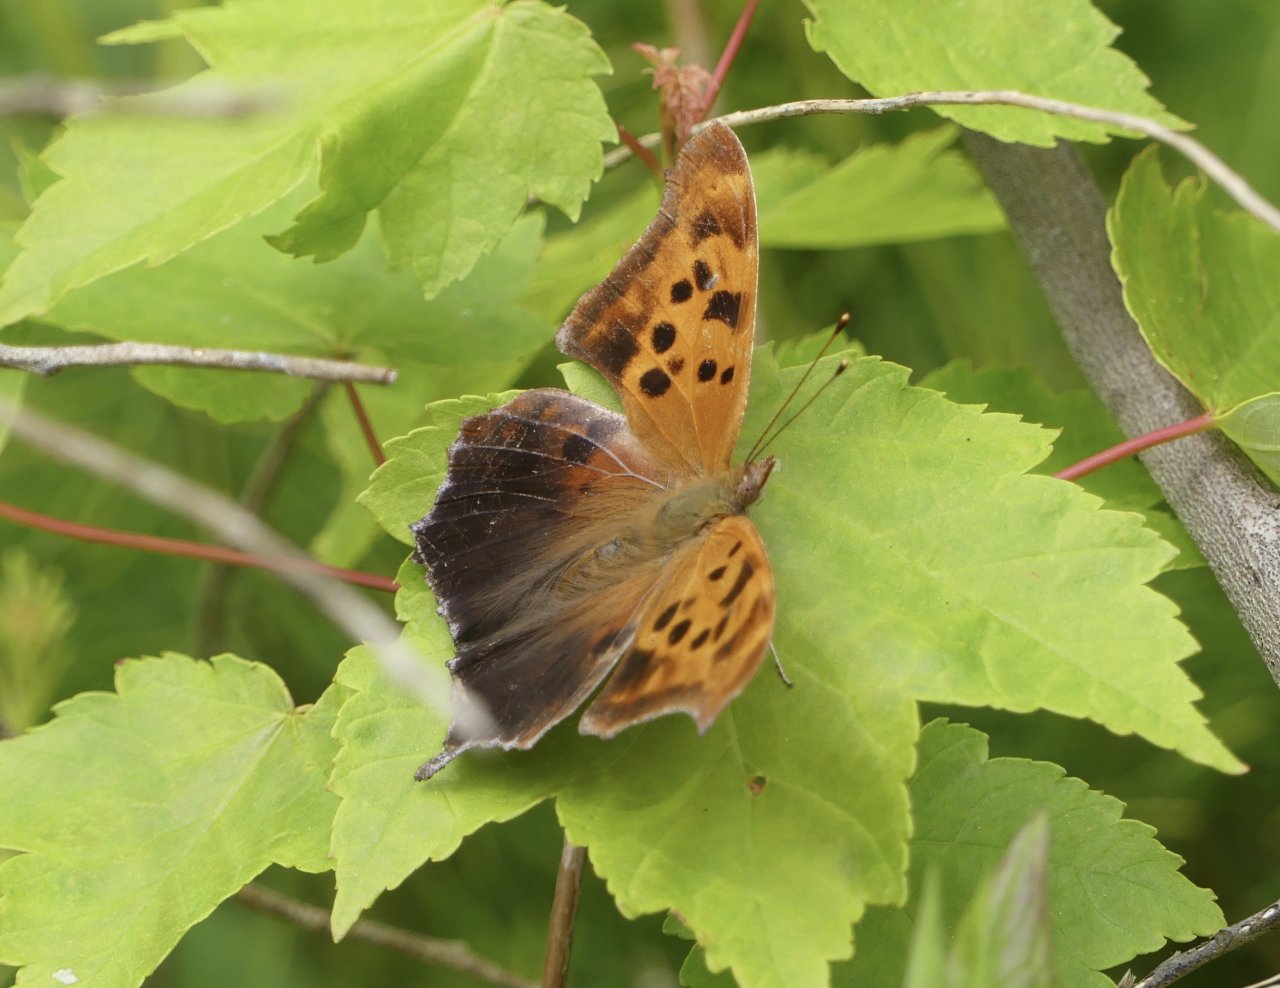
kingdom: Animalia
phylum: Arthropoda
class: Insecta
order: Lepidoptera
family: Nymphalidae
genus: Polygonia
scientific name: Polygonia interrogationis
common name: Question Mark
